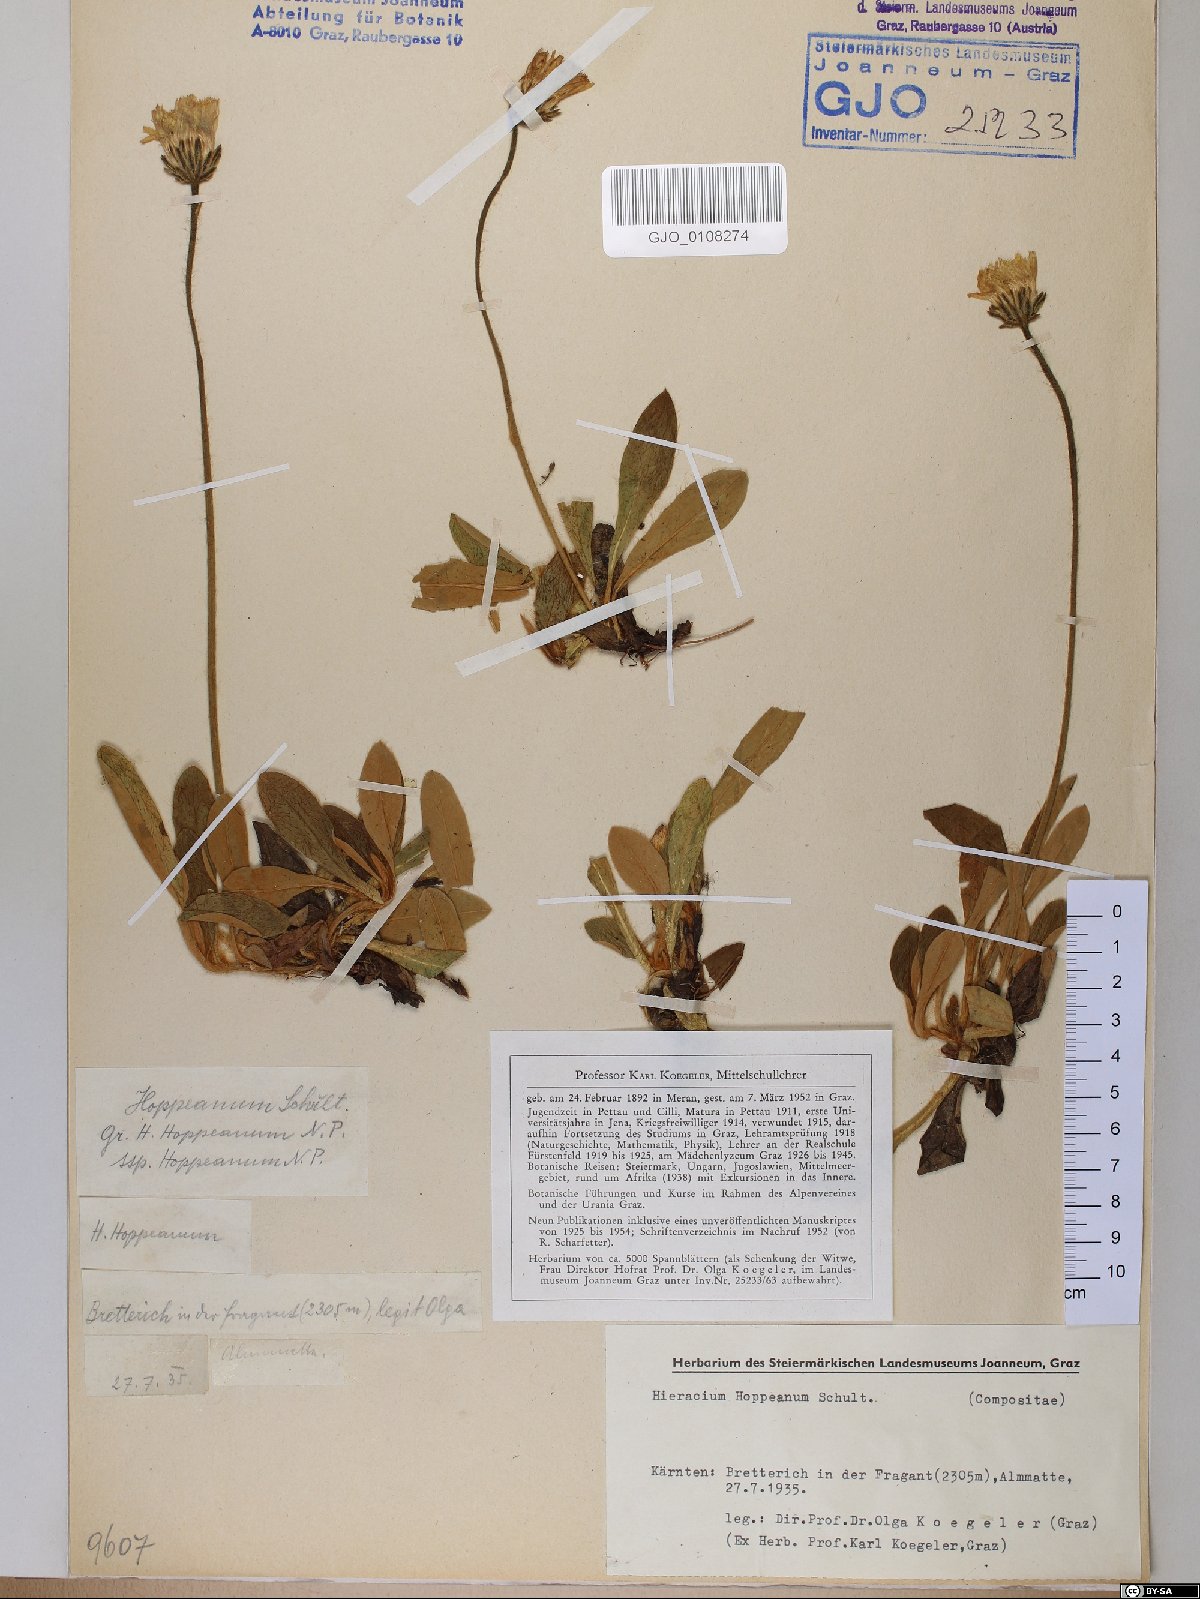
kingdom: Plantae
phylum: Tracheophyta
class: Magnoliopsida
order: Asterales
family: Asteraceae
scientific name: Asteraceae
